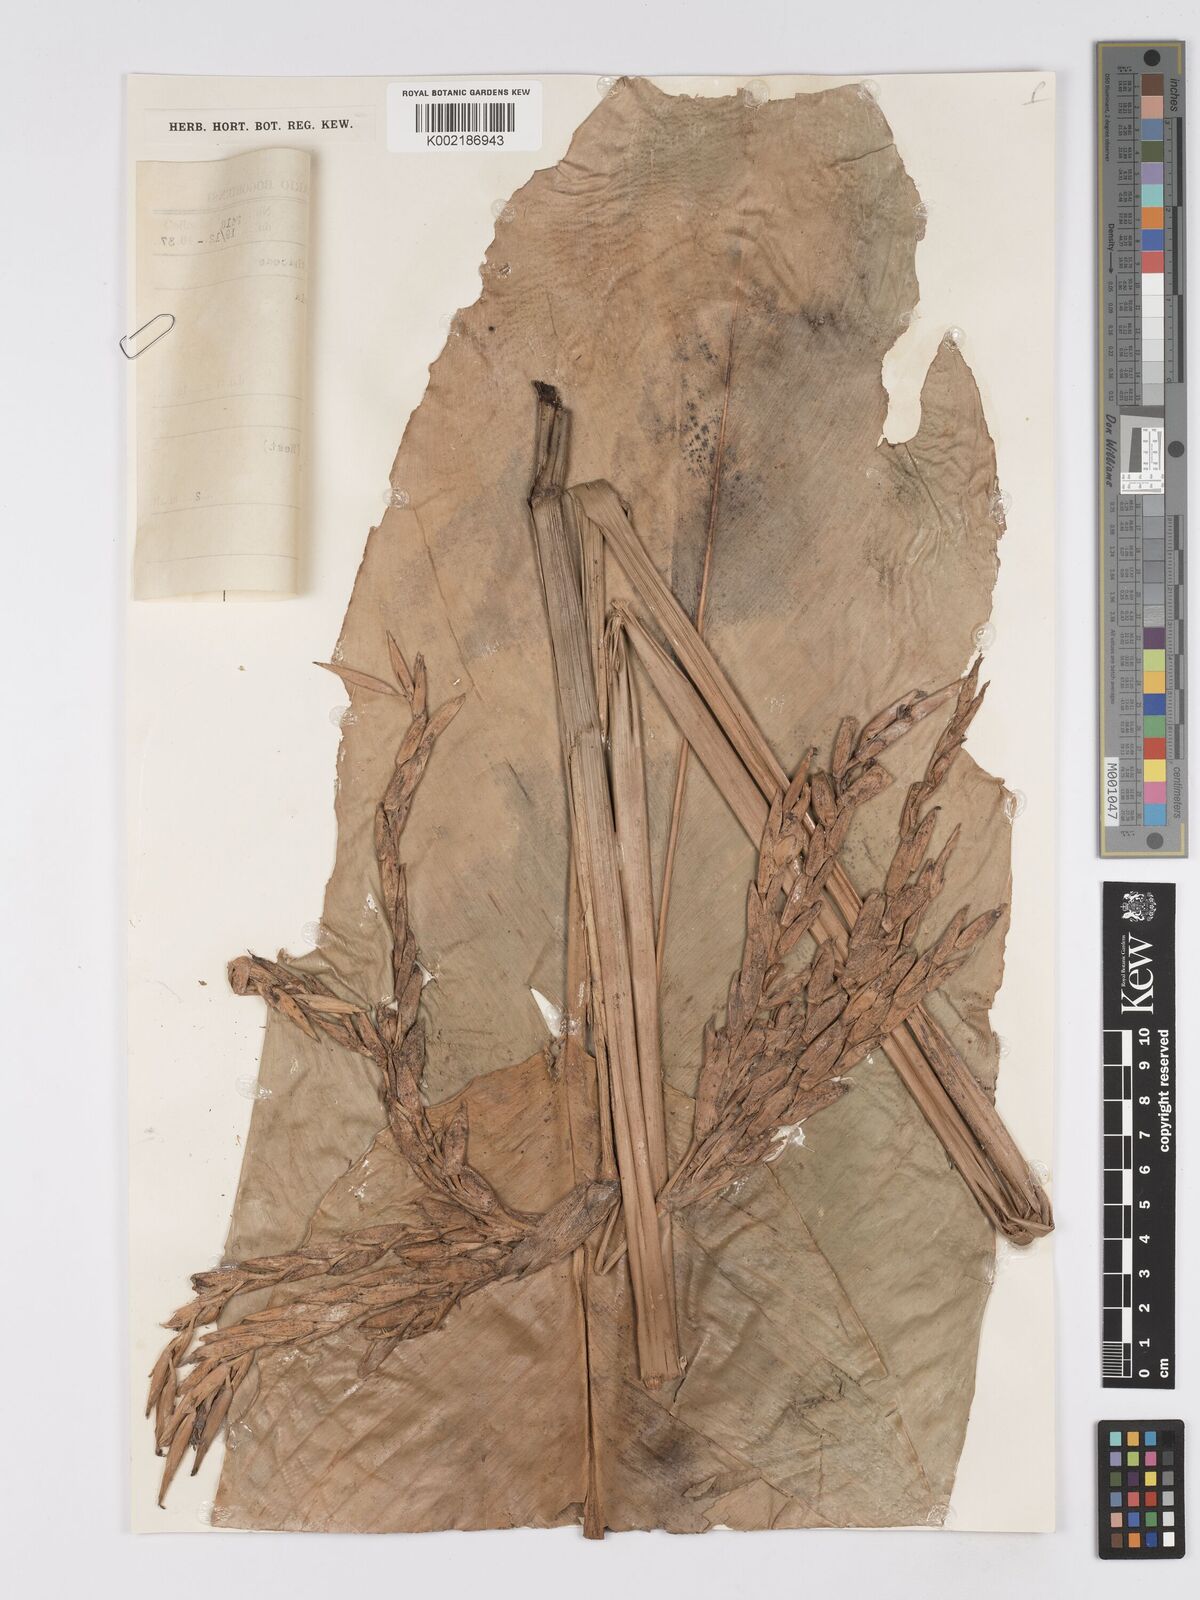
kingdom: Plantae
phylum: Tracheophyta
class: Liliopsida
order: Zingiberales
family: Marantaceae
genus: Phrynium
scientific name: Phrynium
